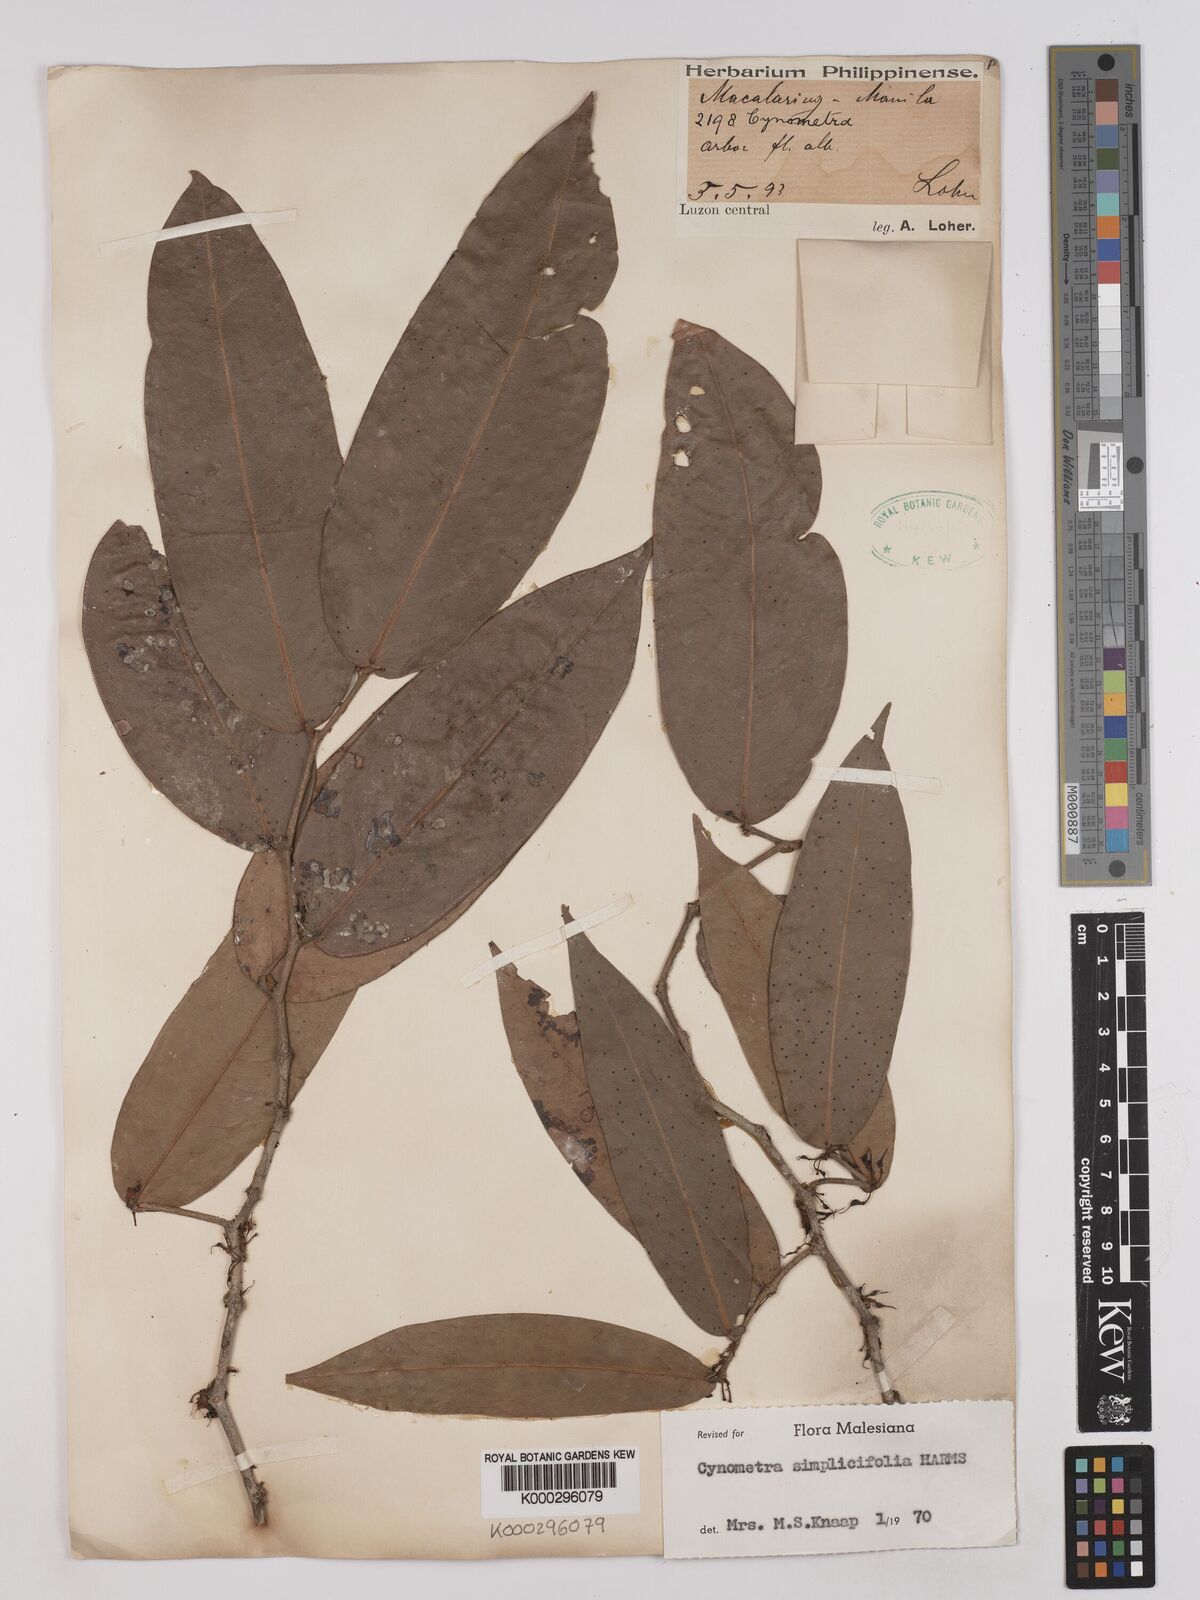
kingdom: Plantae
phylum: Tracheophyta
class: Magnoliopsida
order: Fabales
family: Fabaceae
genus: Cynometra
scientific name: Cynometra simplicifolia
